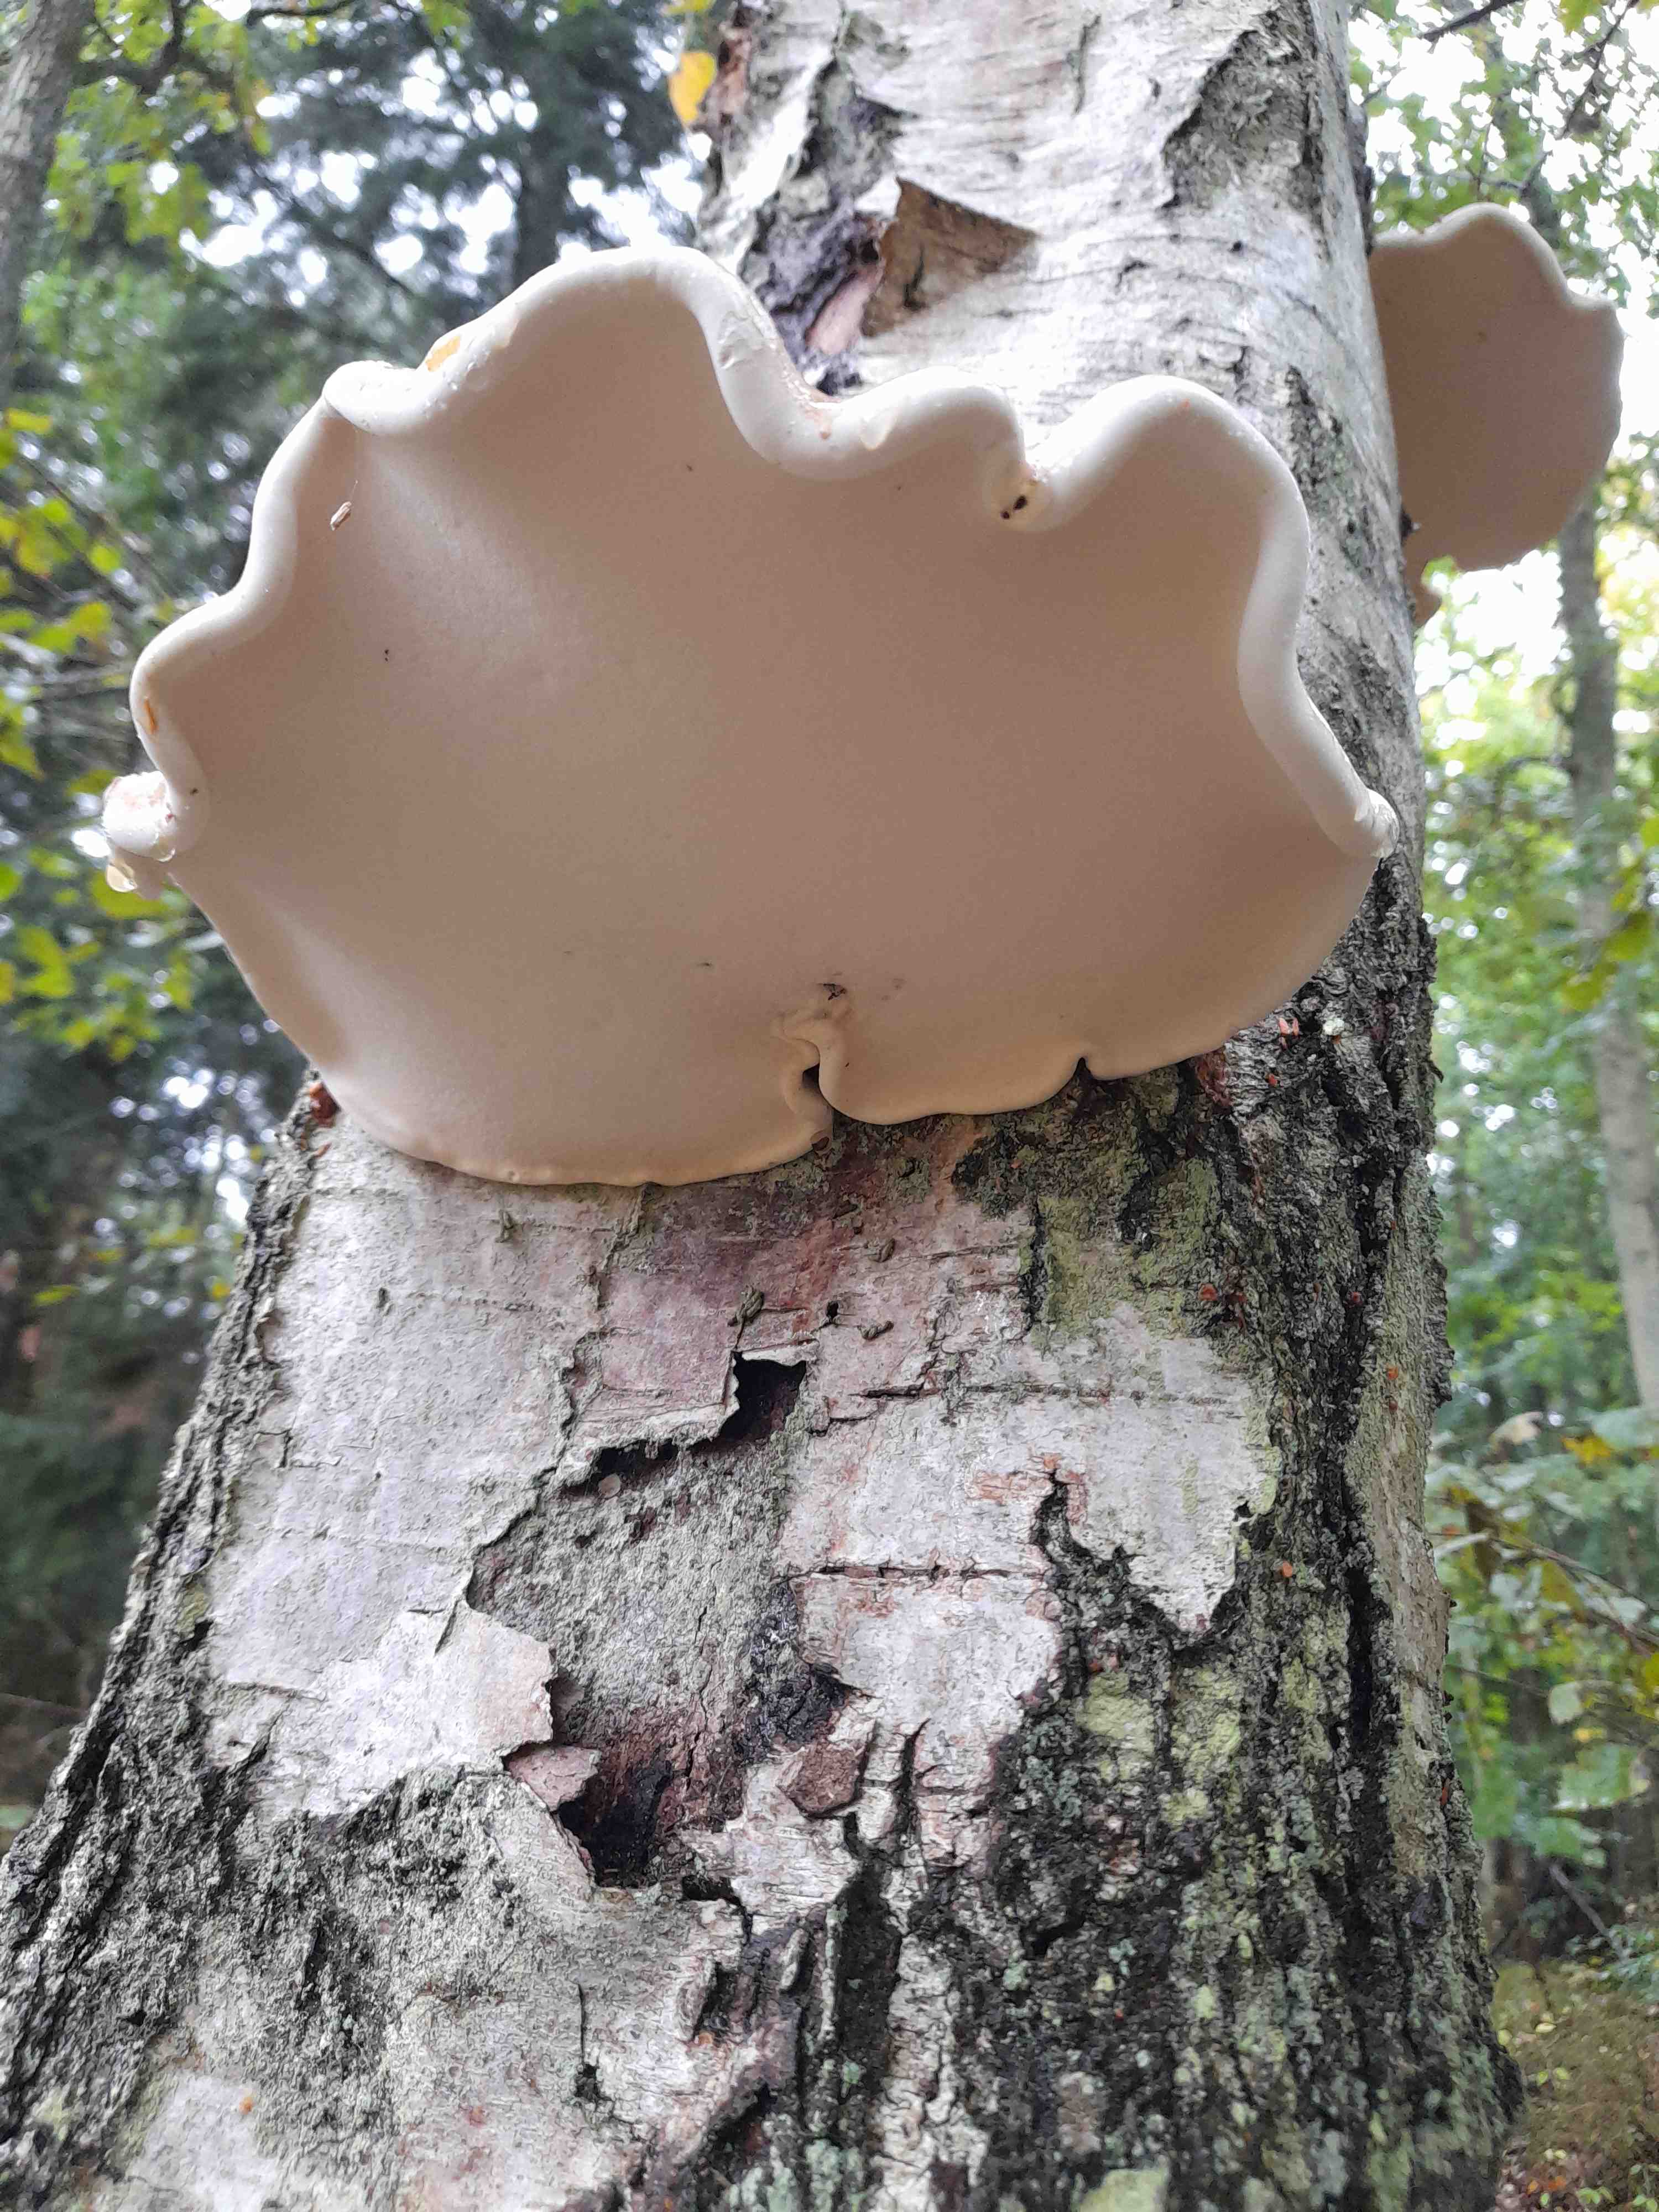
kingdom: Fungi
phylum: Basidiomycota
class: Agaricomycetes
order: Polyporales
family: Fomitopsidaceae
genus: Fomitopsis
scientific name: Fomitopsis betulina
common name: birkeporesvamp
